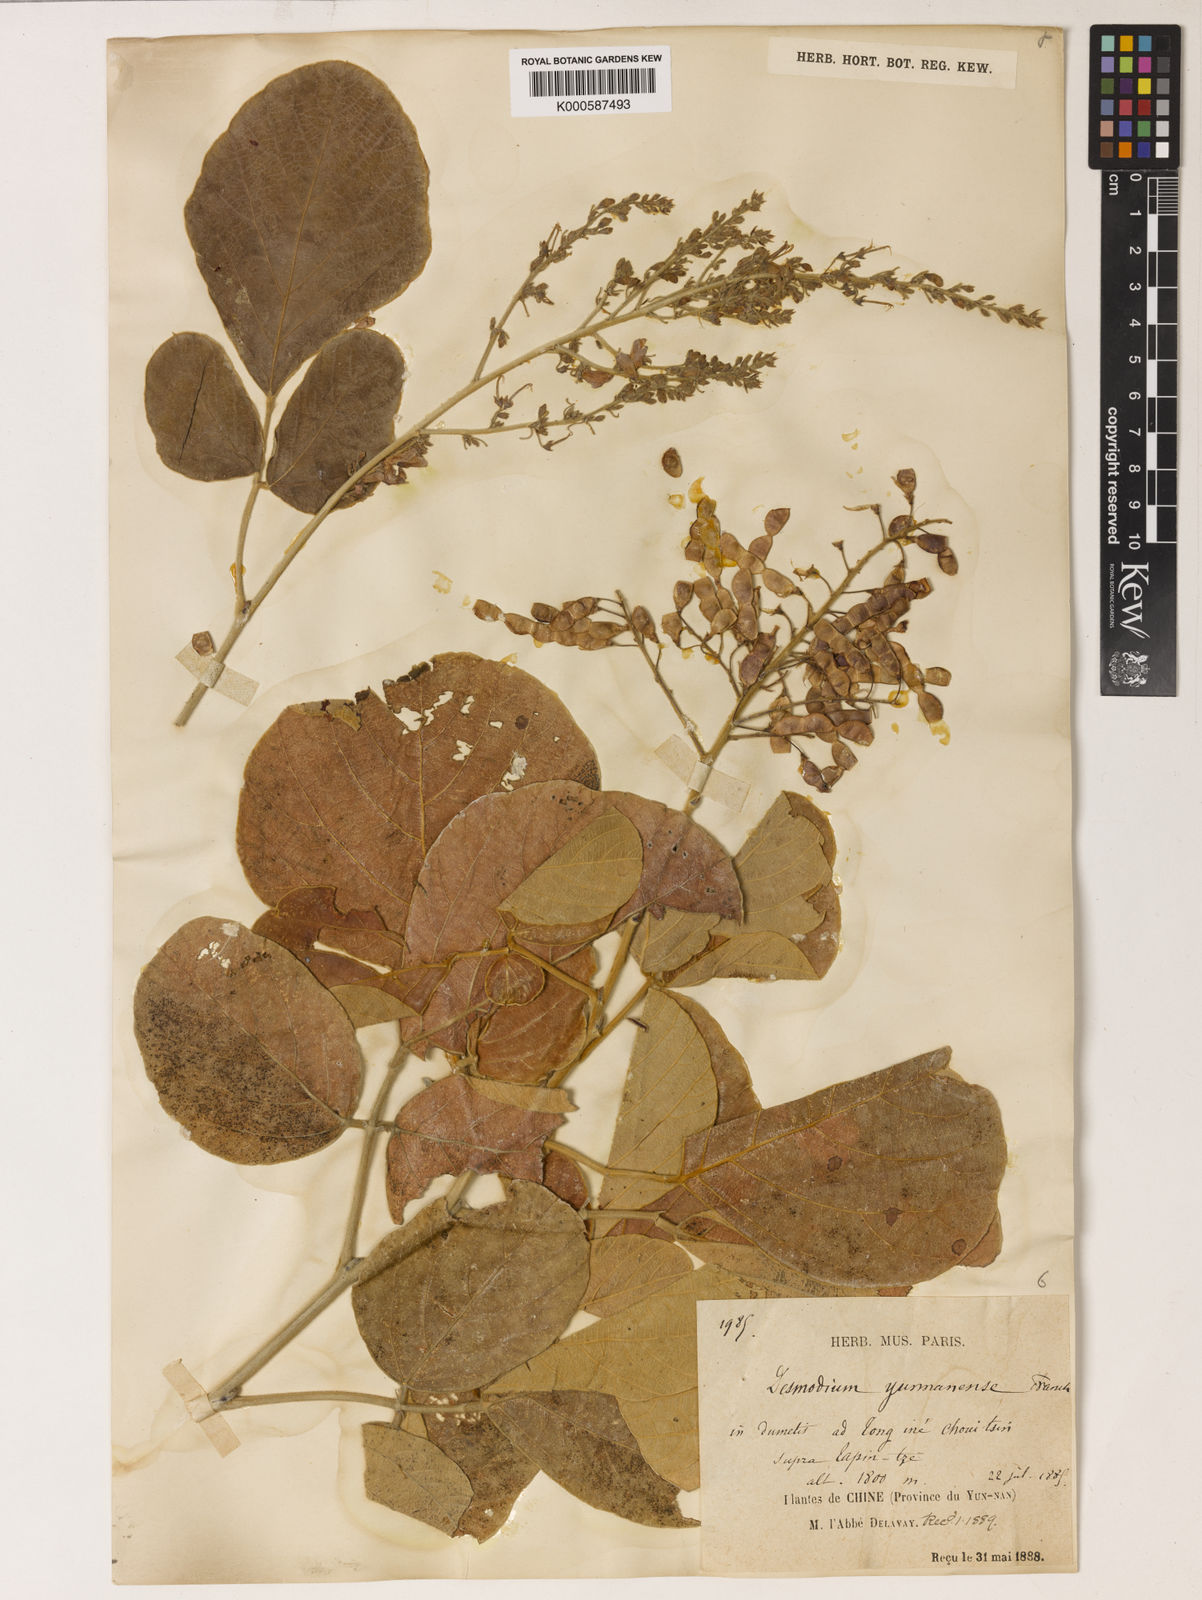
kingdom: Plantae
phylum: Tracheophyta
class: Magnoliopsida
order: Fabales
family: Fabaceae
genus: Sunhangia
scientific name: Sunhangia yunnanensis
